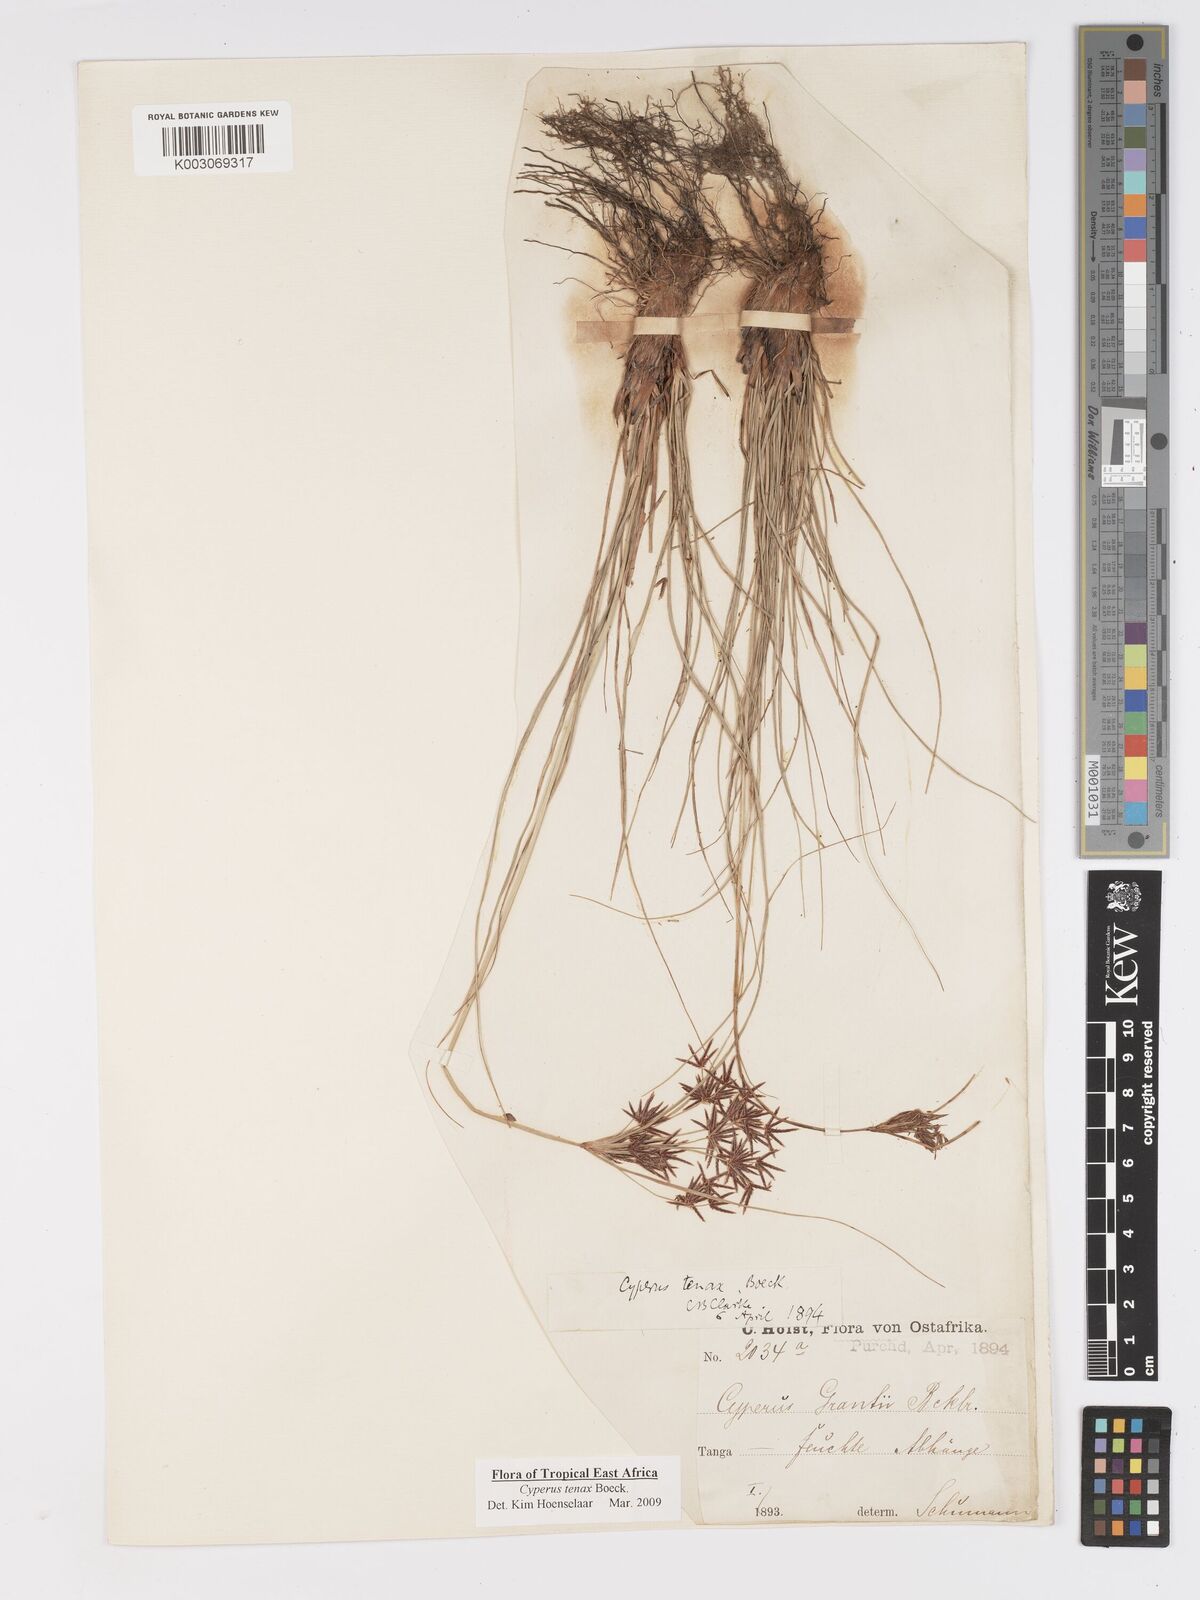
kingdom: Plantae
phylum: Tracheophyta
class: Liliopsida
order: Poales
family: Cyperaceae
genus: Cyperus
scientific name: Cyperus tenax
